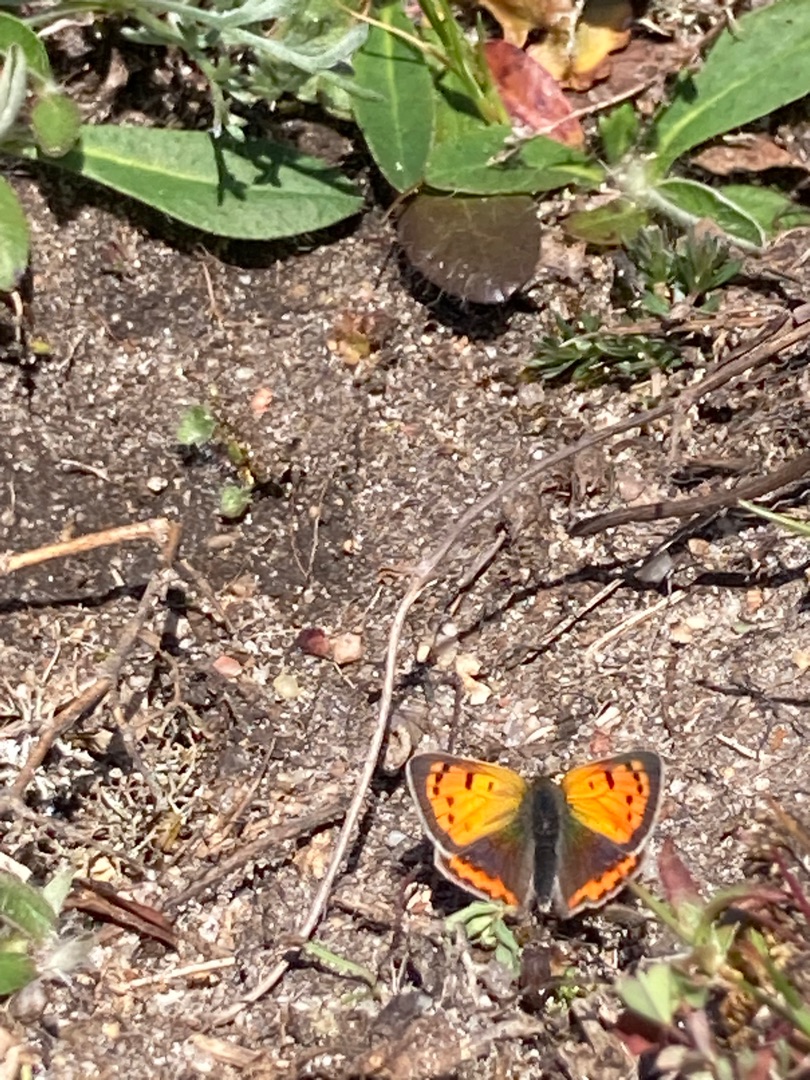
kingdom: Animalia
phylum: Arthropoda
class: Insecta
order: Lepidoptera
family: Lycaenidae
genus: Lycaena
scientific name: Lycaena phlaeas
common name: Lille ildfugl
